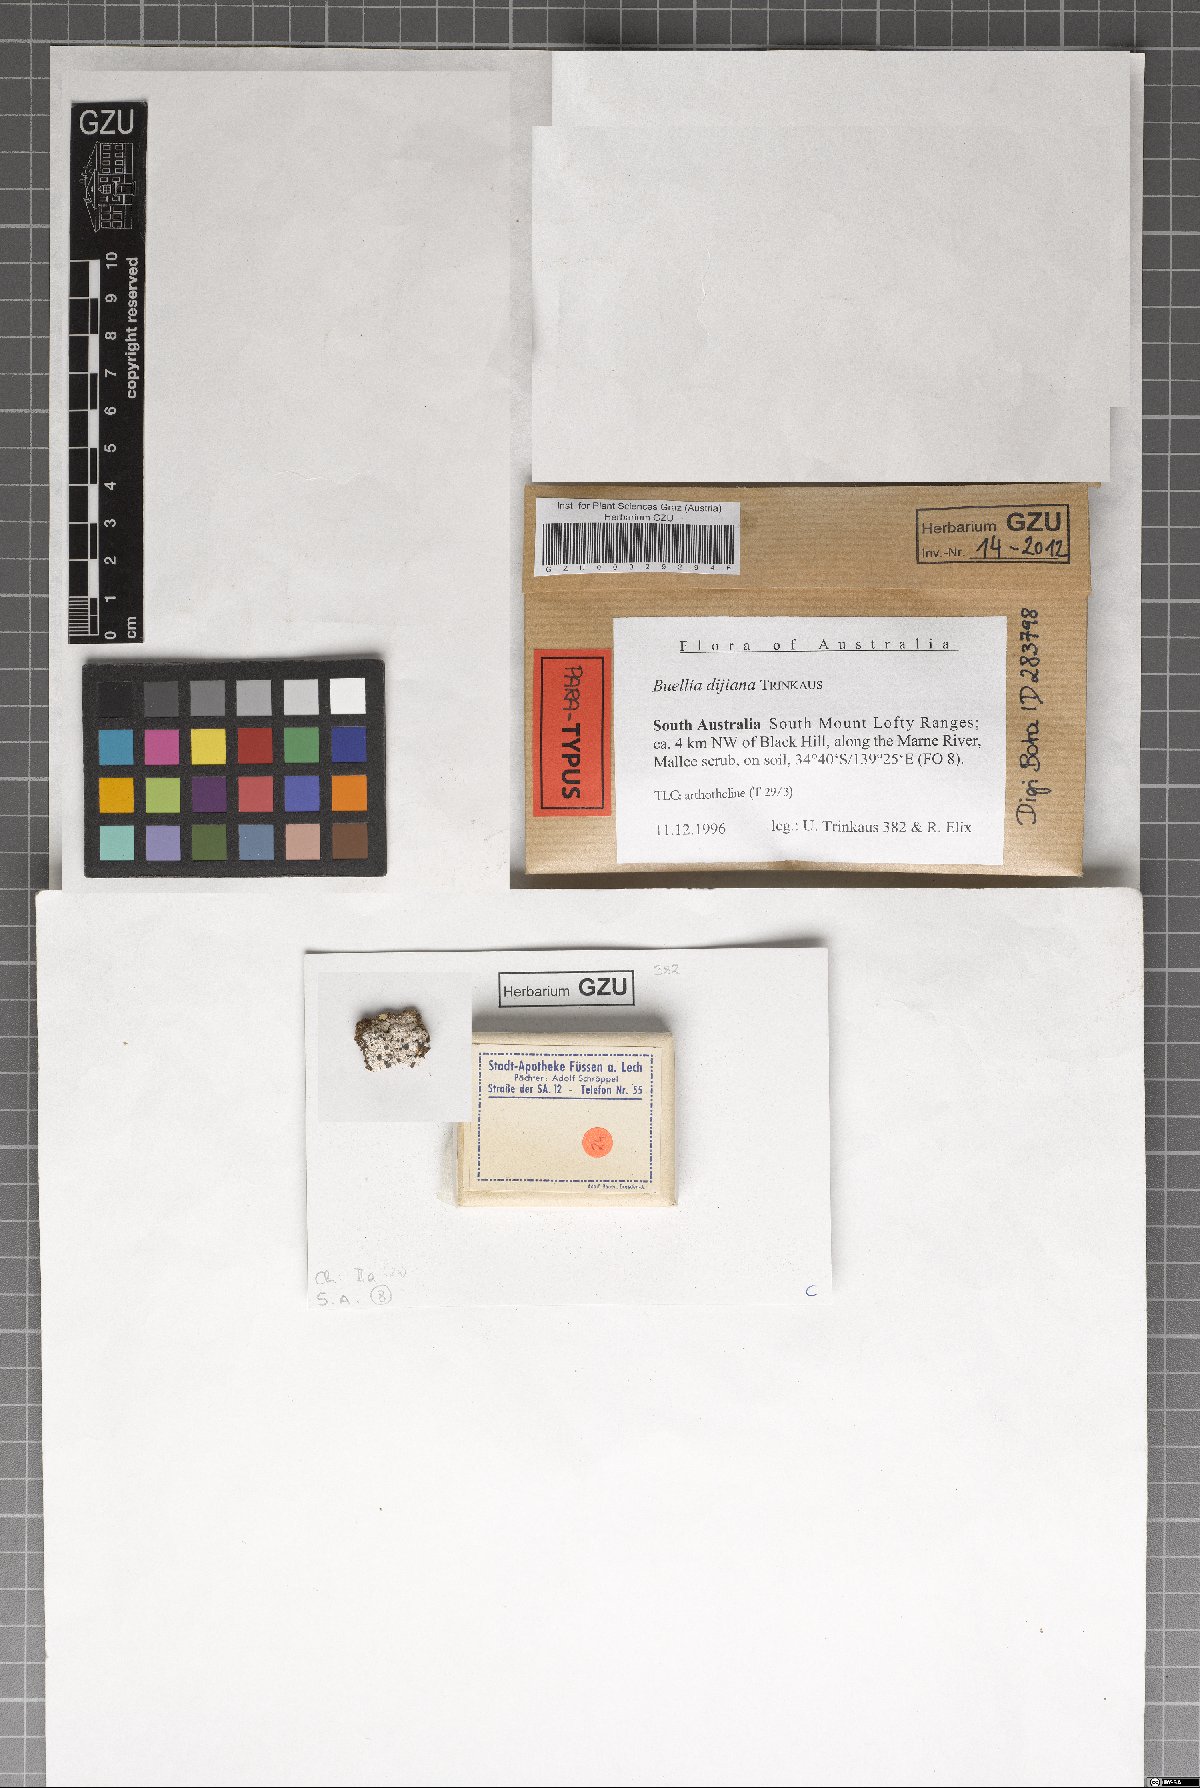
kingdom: Fungi
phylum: Ascomycota
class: Lecanoromycetes
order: Caliciales
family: Caliciaceae
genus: Buellia
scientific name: Buellia dayboroana
